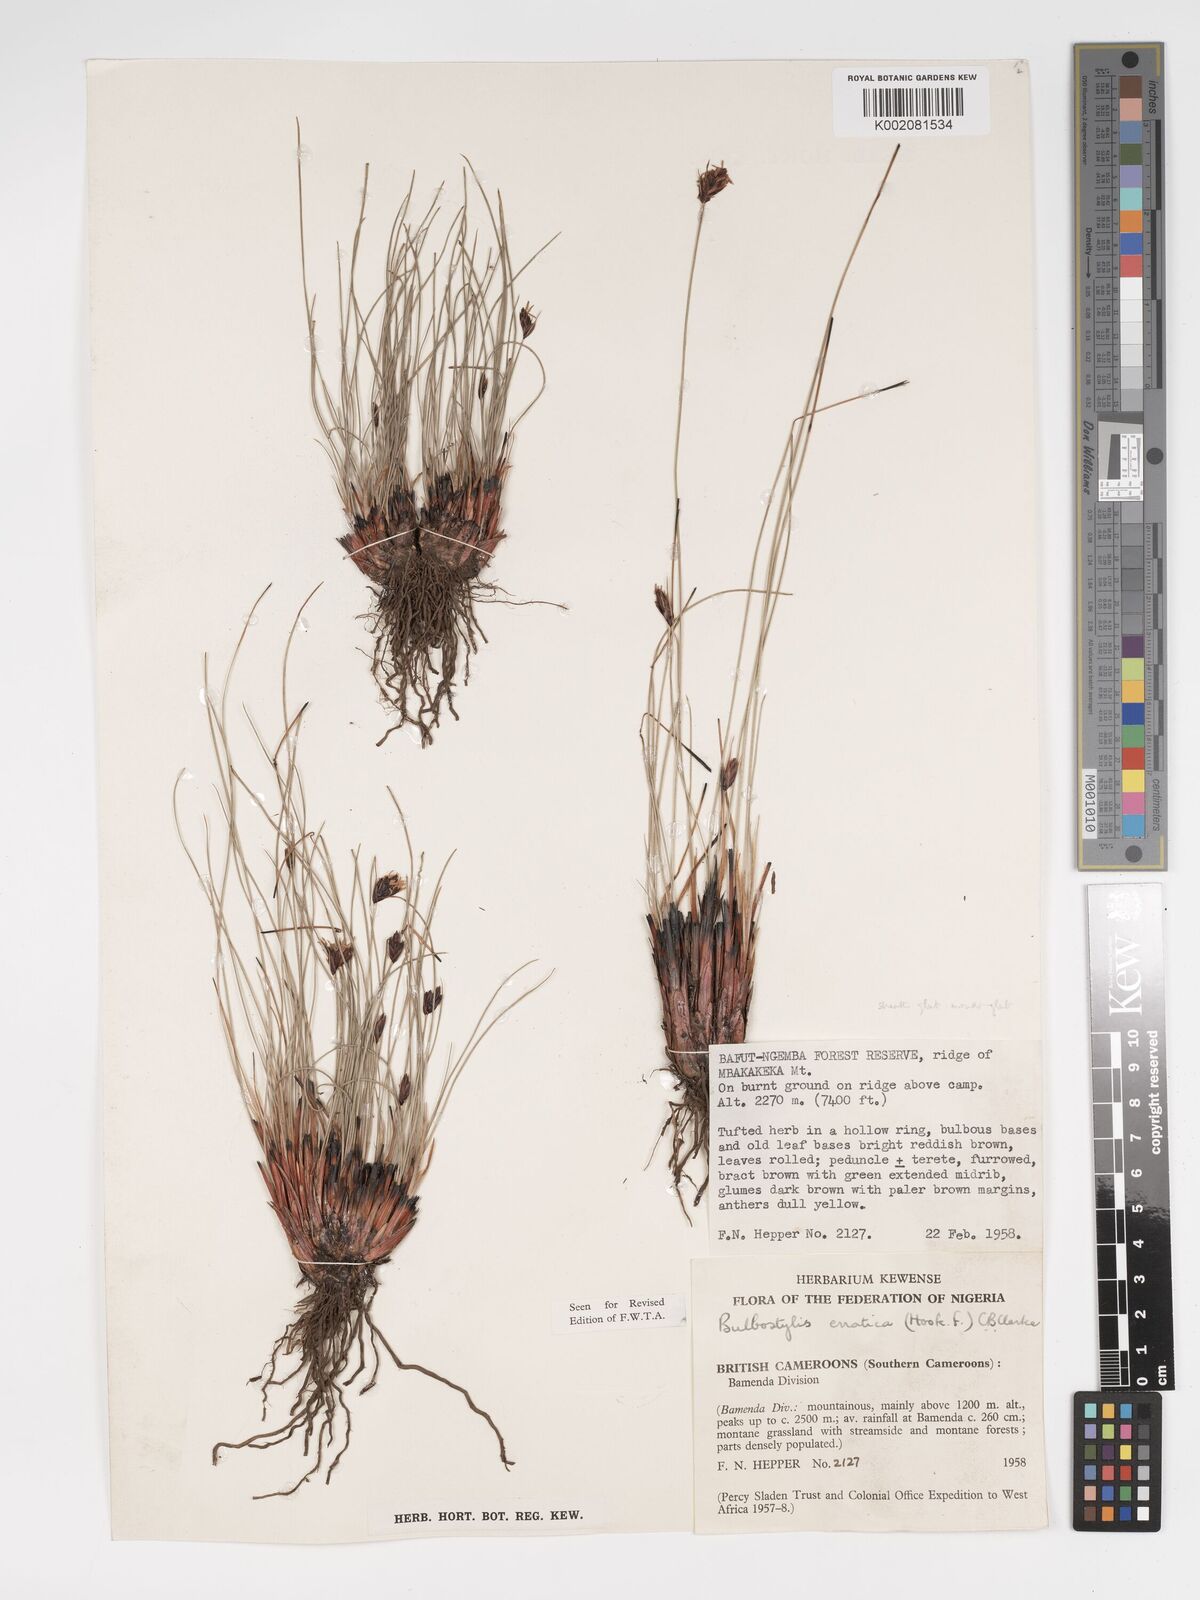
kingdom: Plantae
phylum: Tracheophyta
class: Liliopsida
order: Poales
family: Cyperaceae
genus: Bulbostylis
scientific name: Bulbostylis schoenoides
